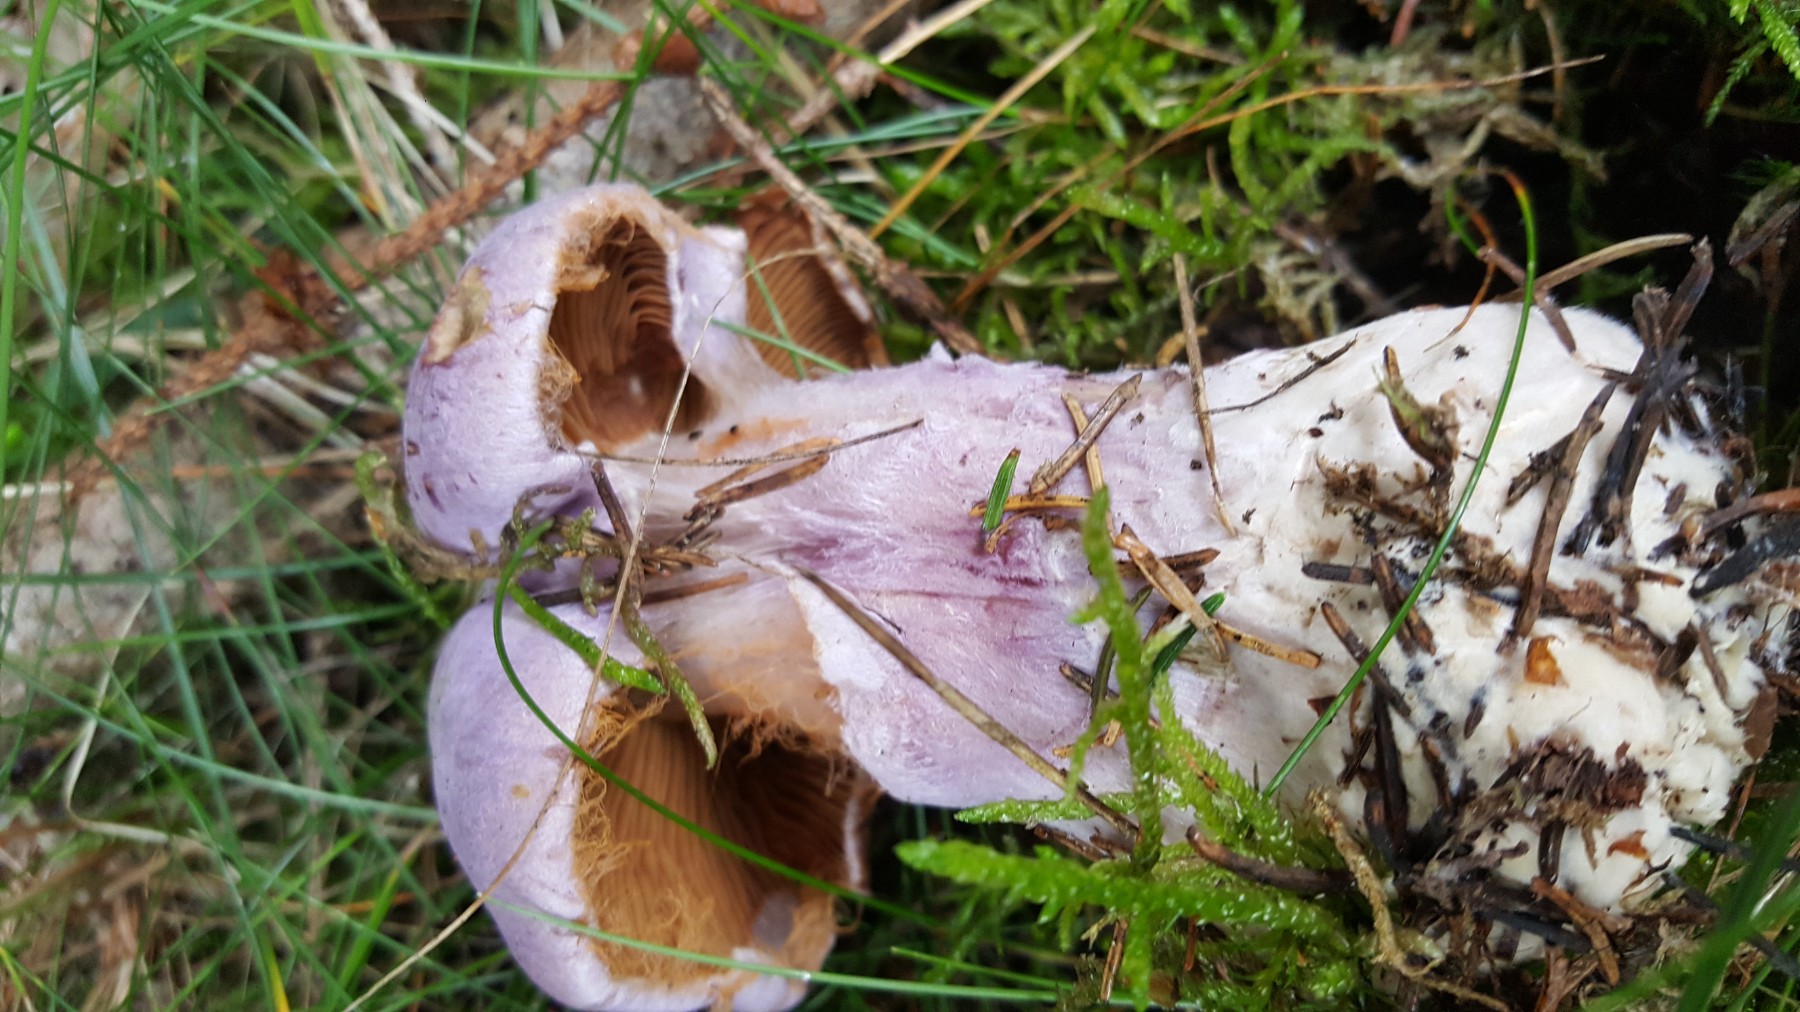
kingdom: Fungi
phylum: Basidiomycota
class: Agaricomycetes
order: Agaricales
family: Cortinariaceae
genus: Cortinarius
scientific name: Cortinarius
